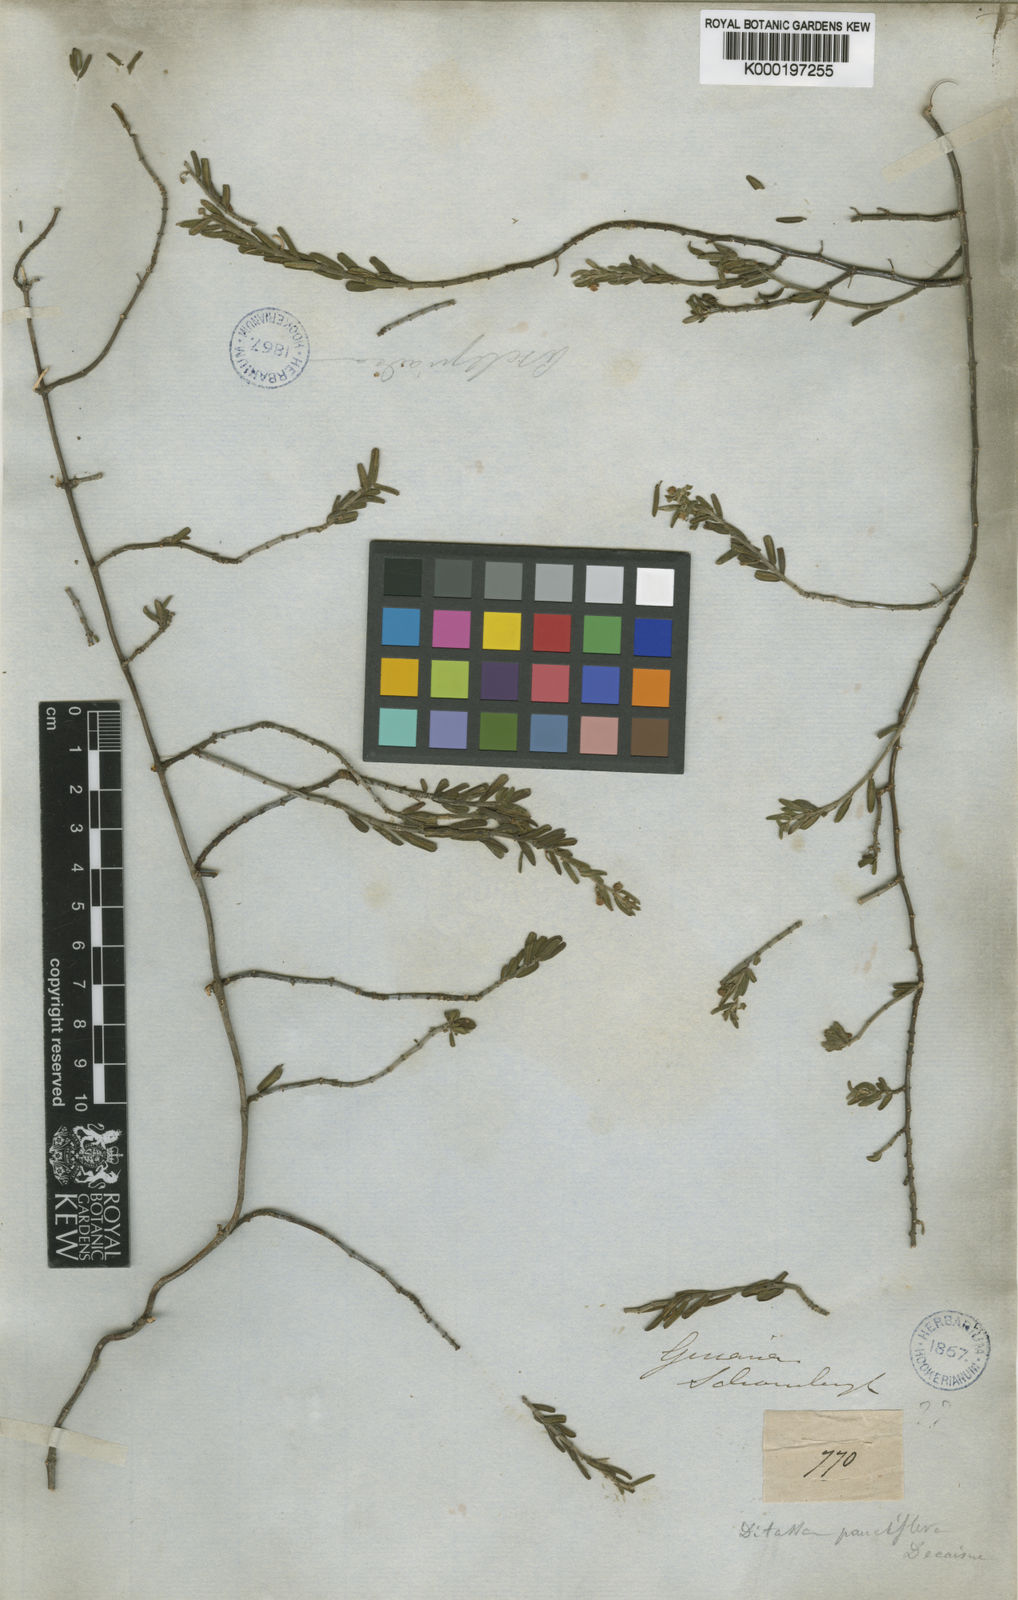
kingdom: Plantae
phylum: Tracheophyta
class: Magnoliopsida
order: Gentianales
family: Apocynaceae
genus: Ditassa
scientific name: Ditassa pauciflora
